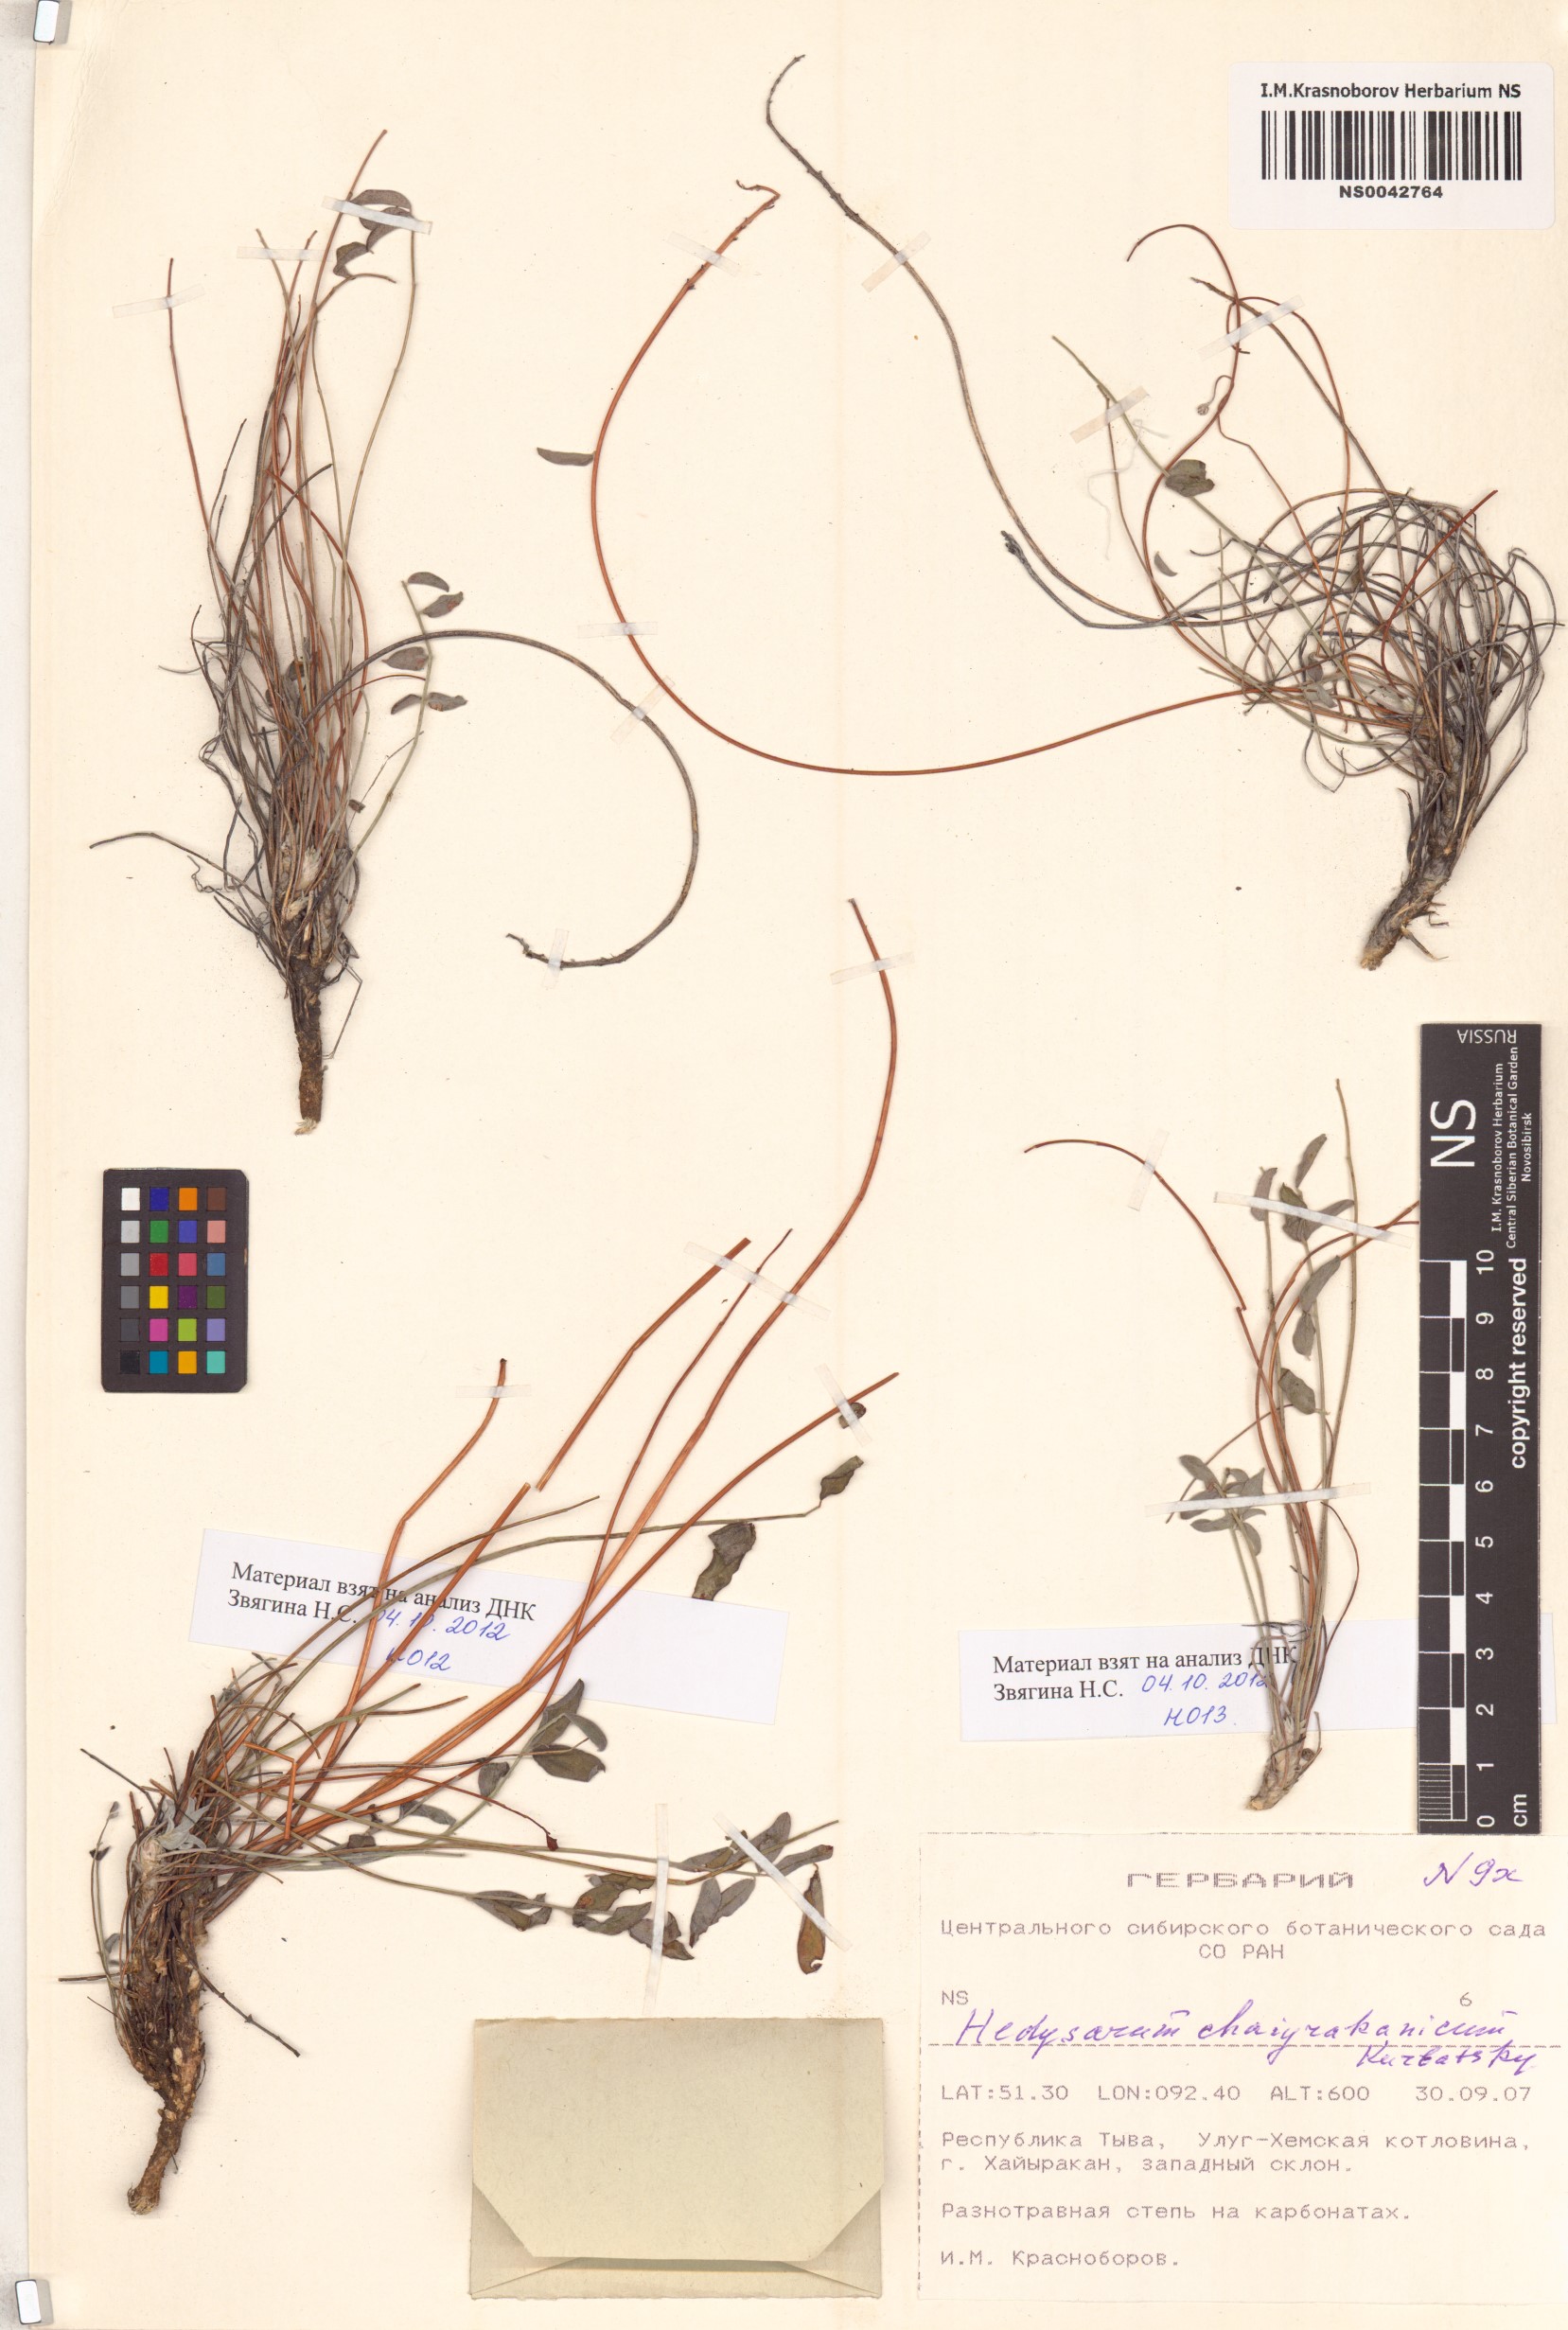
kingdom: Plantae
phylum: Tracheophyta
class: Magnoliopsida
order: Fabales
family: Fabaceae
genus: Hedysarum
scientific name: Hedysarum setigerum
